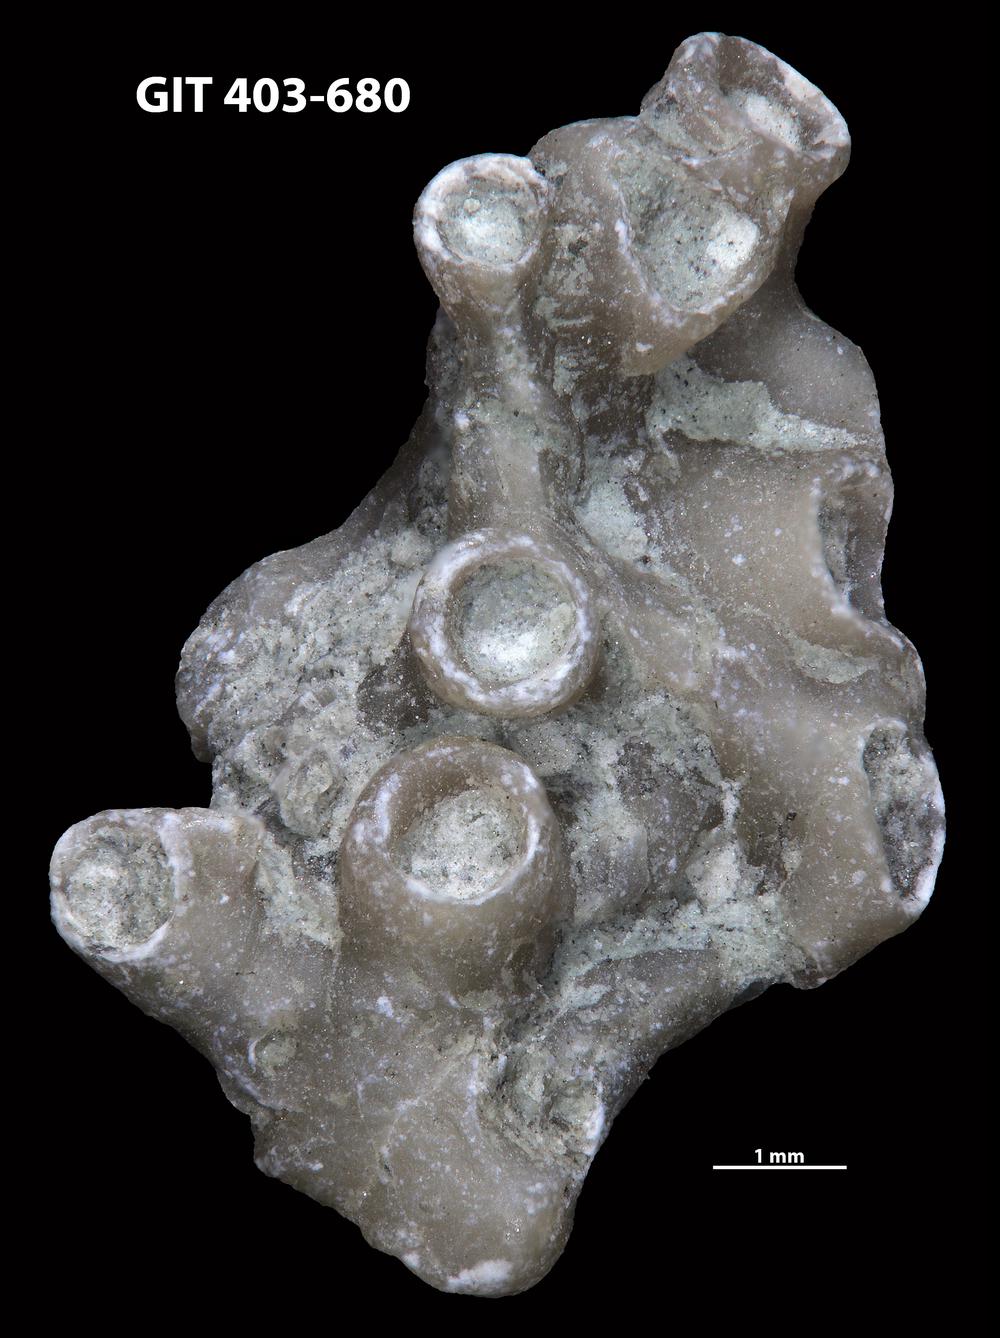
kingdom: Animalia
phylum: Cnidaria
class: Anthozoa
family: Auloporidae
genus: Aulopora
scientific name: Aulopora
